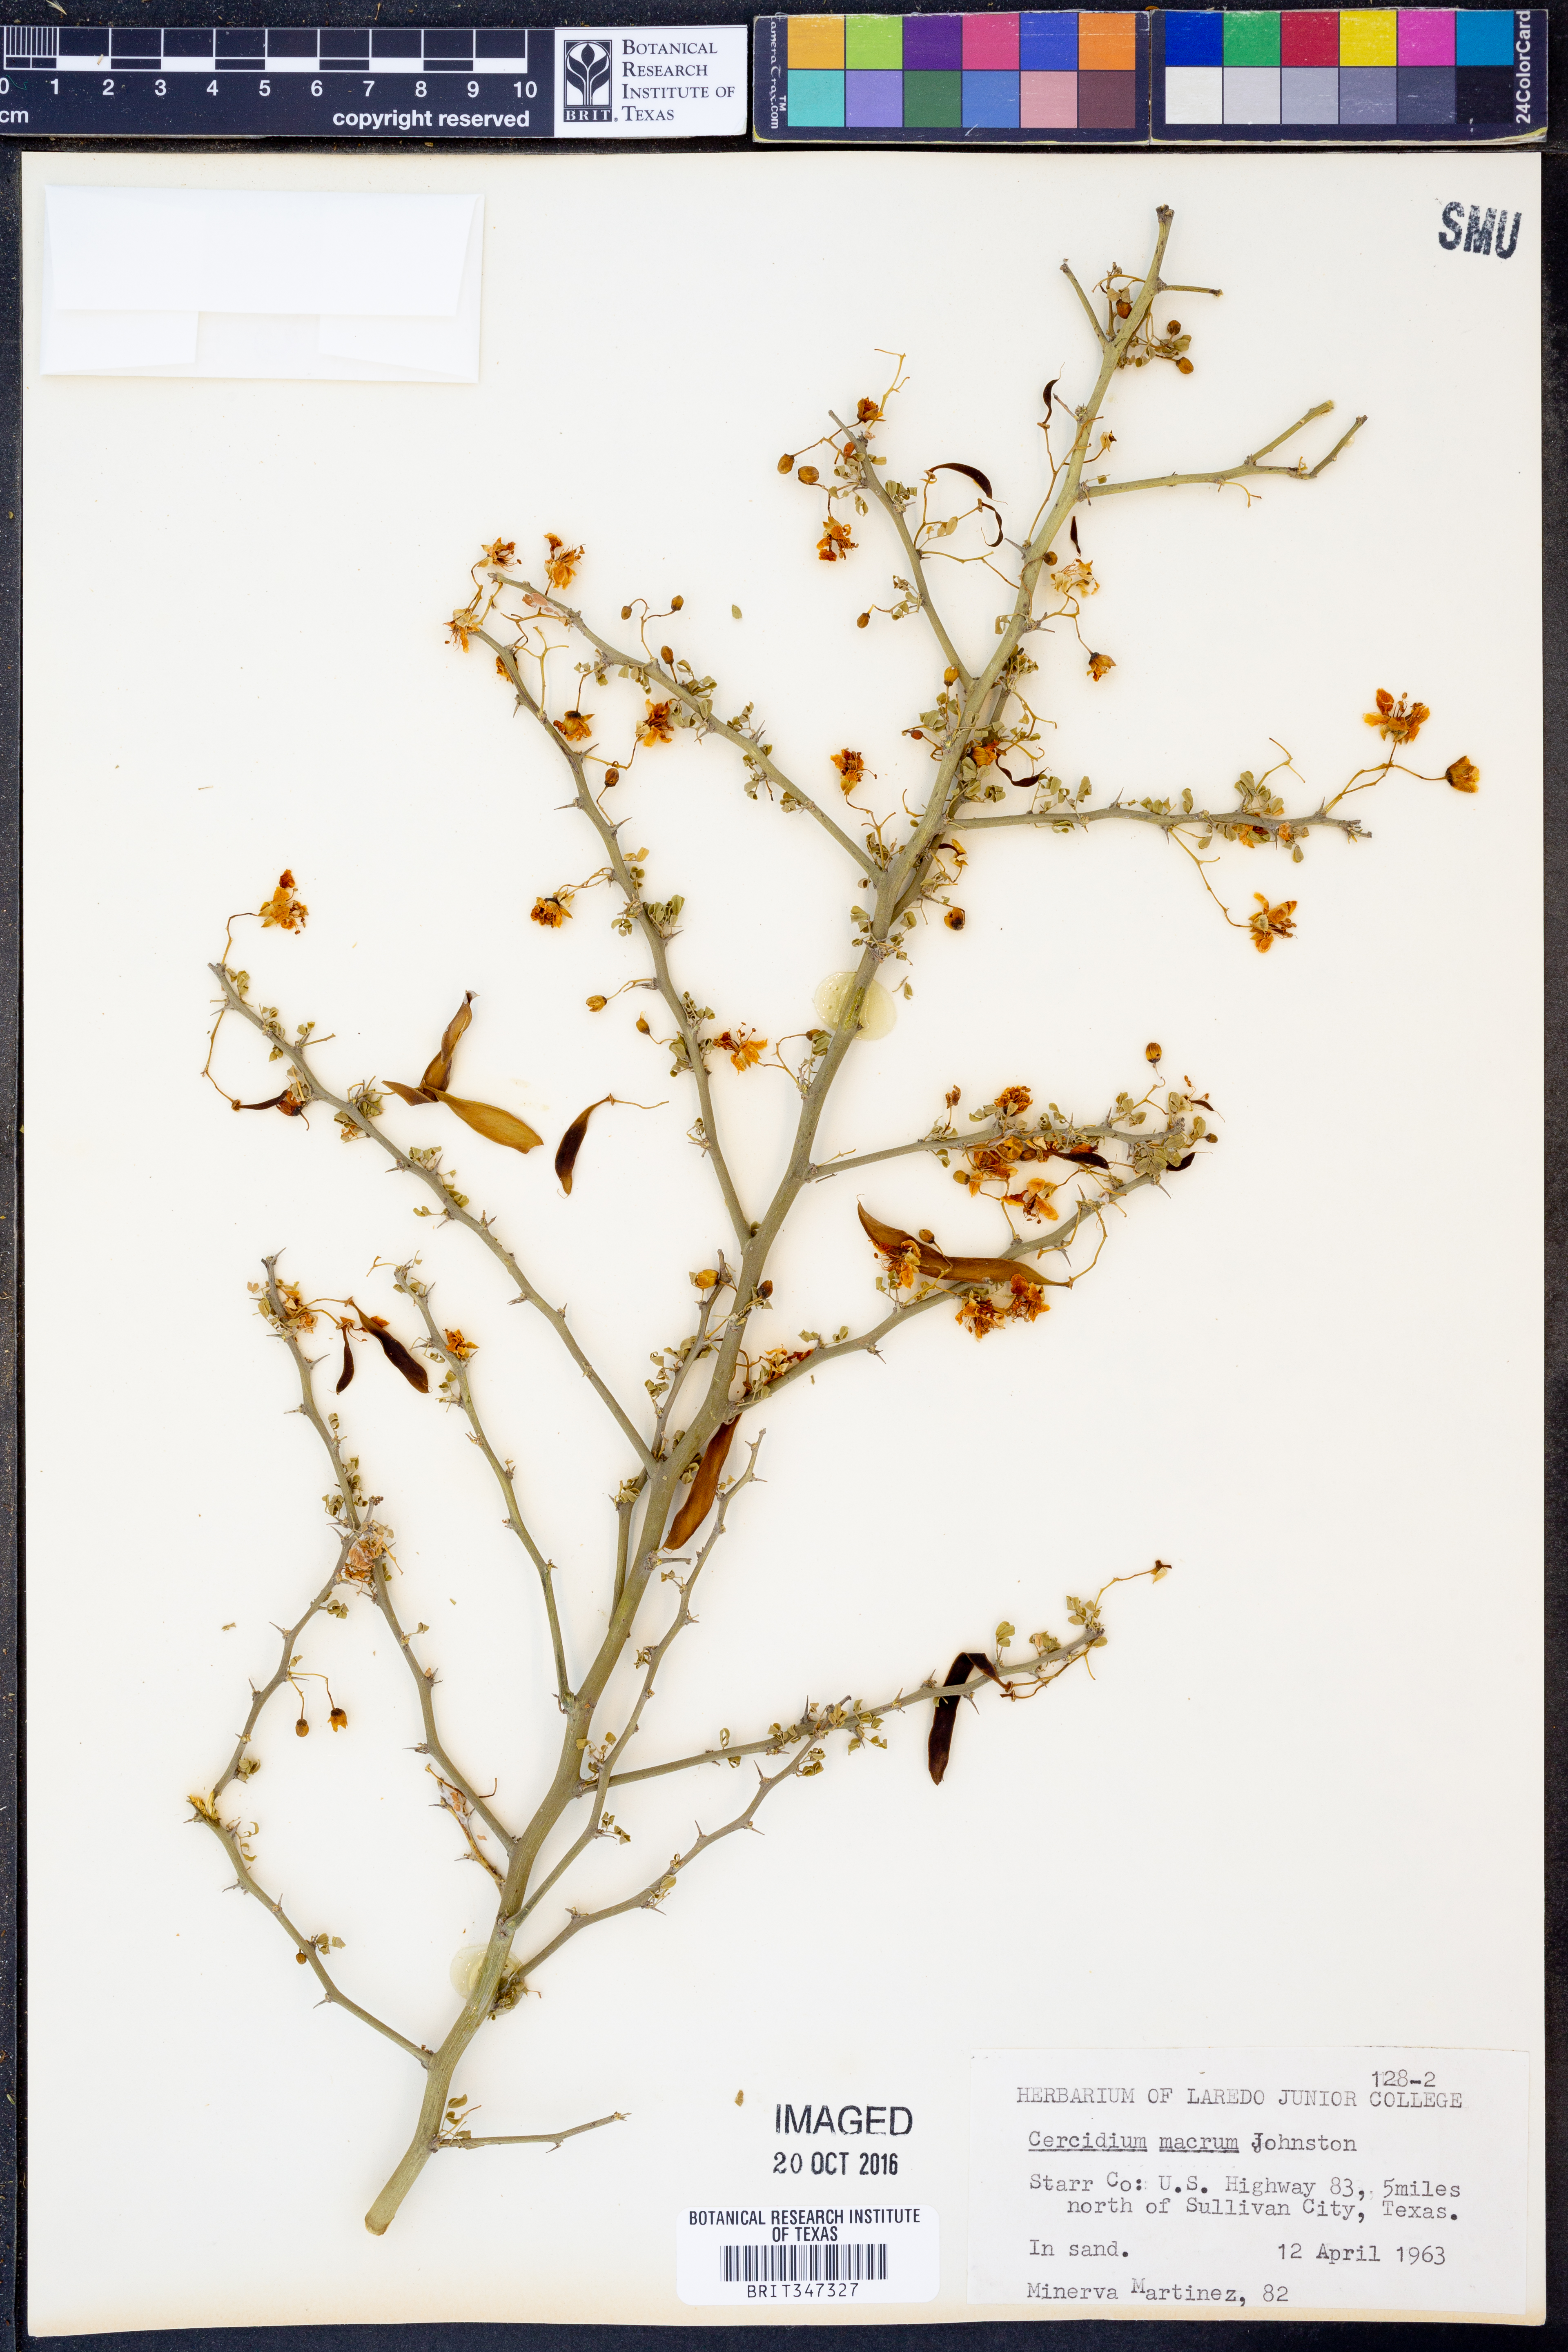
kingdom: Plantae
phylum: Tracheophyta
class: Magnoliopsida
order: Fabales
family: Fabaceae
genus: Parkinsonia
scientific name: Parkinsonia texana
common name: Texas paloverde
